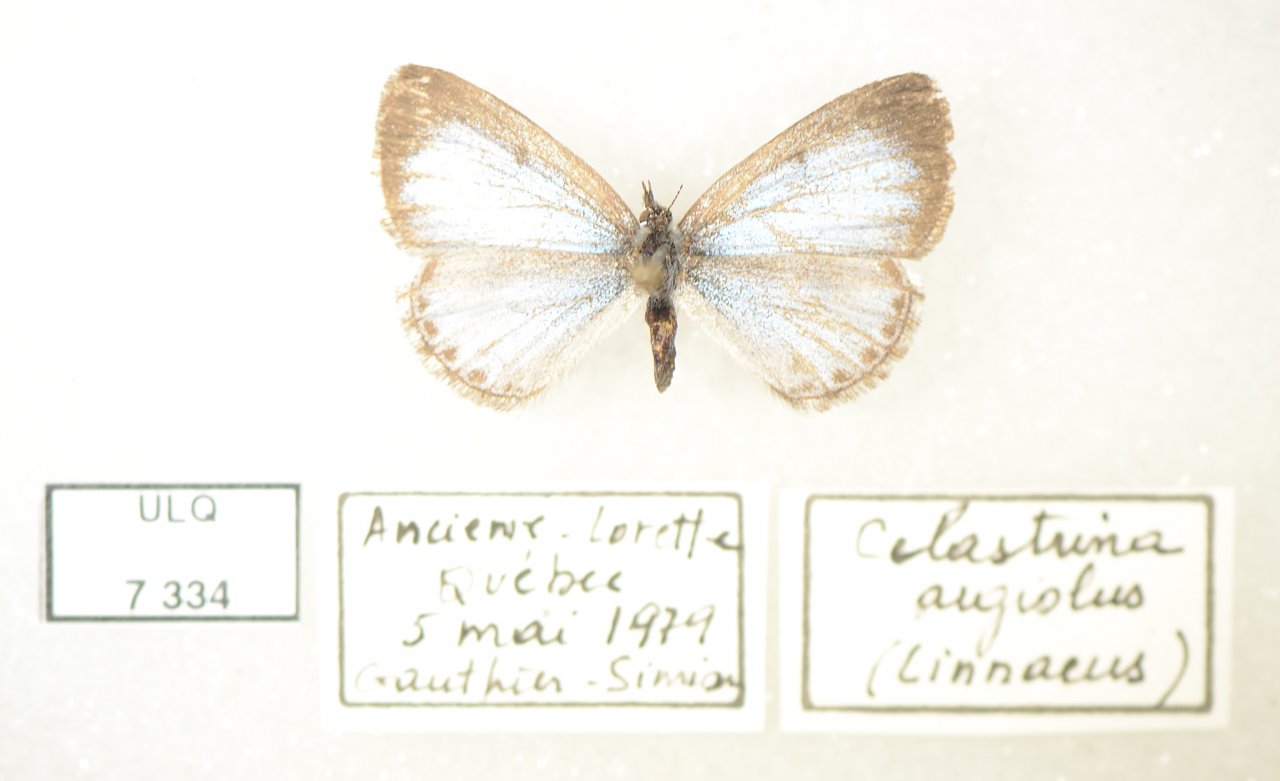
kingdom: Animalia
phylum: Arthropoda
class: Insecta
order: Lepidoptera
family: Lycaenidae
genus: Celastrina
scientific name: Celastrina lucia
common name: Northern Spring Azure
